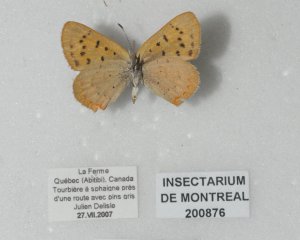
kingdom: Animalia
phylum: Arthropoda
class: Insecta
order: Lepidoptera
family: Lycaenidae
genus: Epidemia
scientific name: Epidemia dorcas
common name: Dorcas Copper
